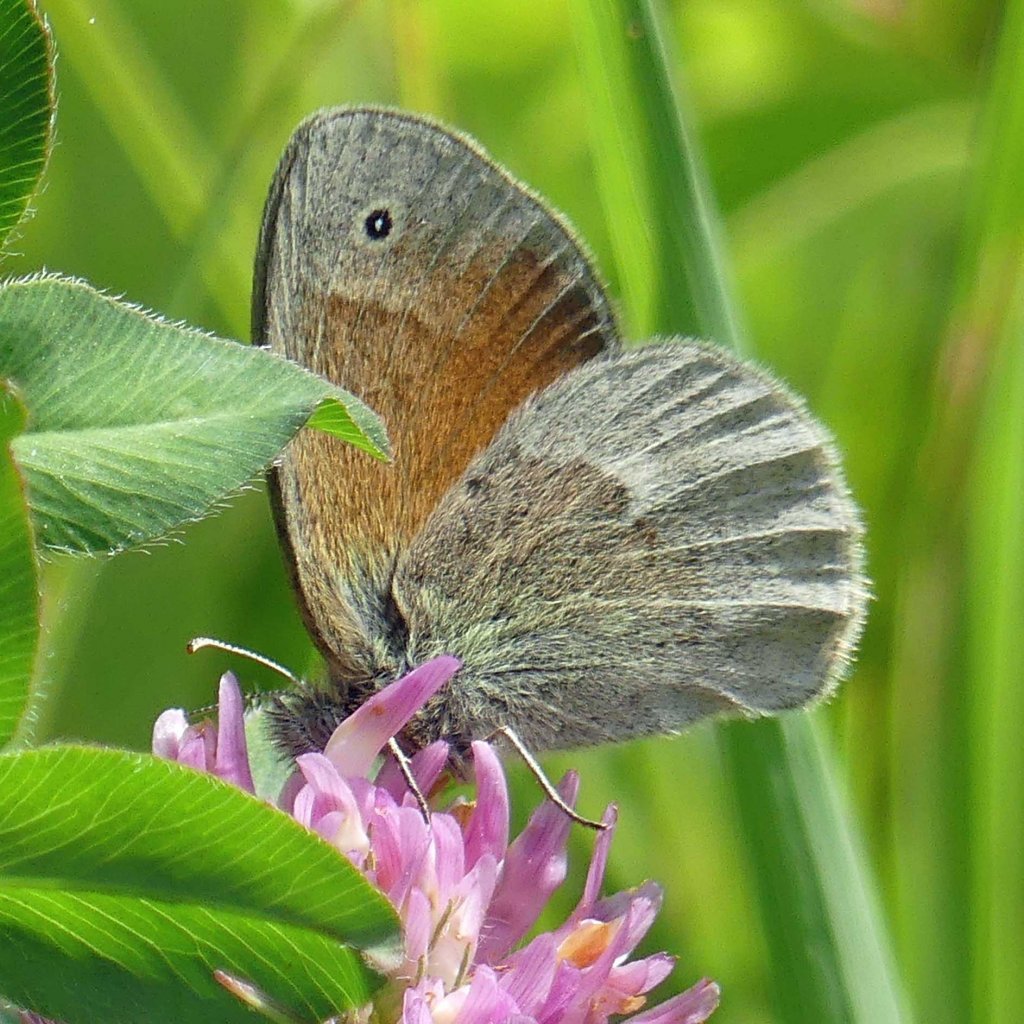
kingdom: Animalia
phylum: Arthropoda
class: Insecta
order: Lepidoptera
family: Nymphalidae
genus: Coenonympha
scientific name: Coenonympha tullia
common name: Large Heath
